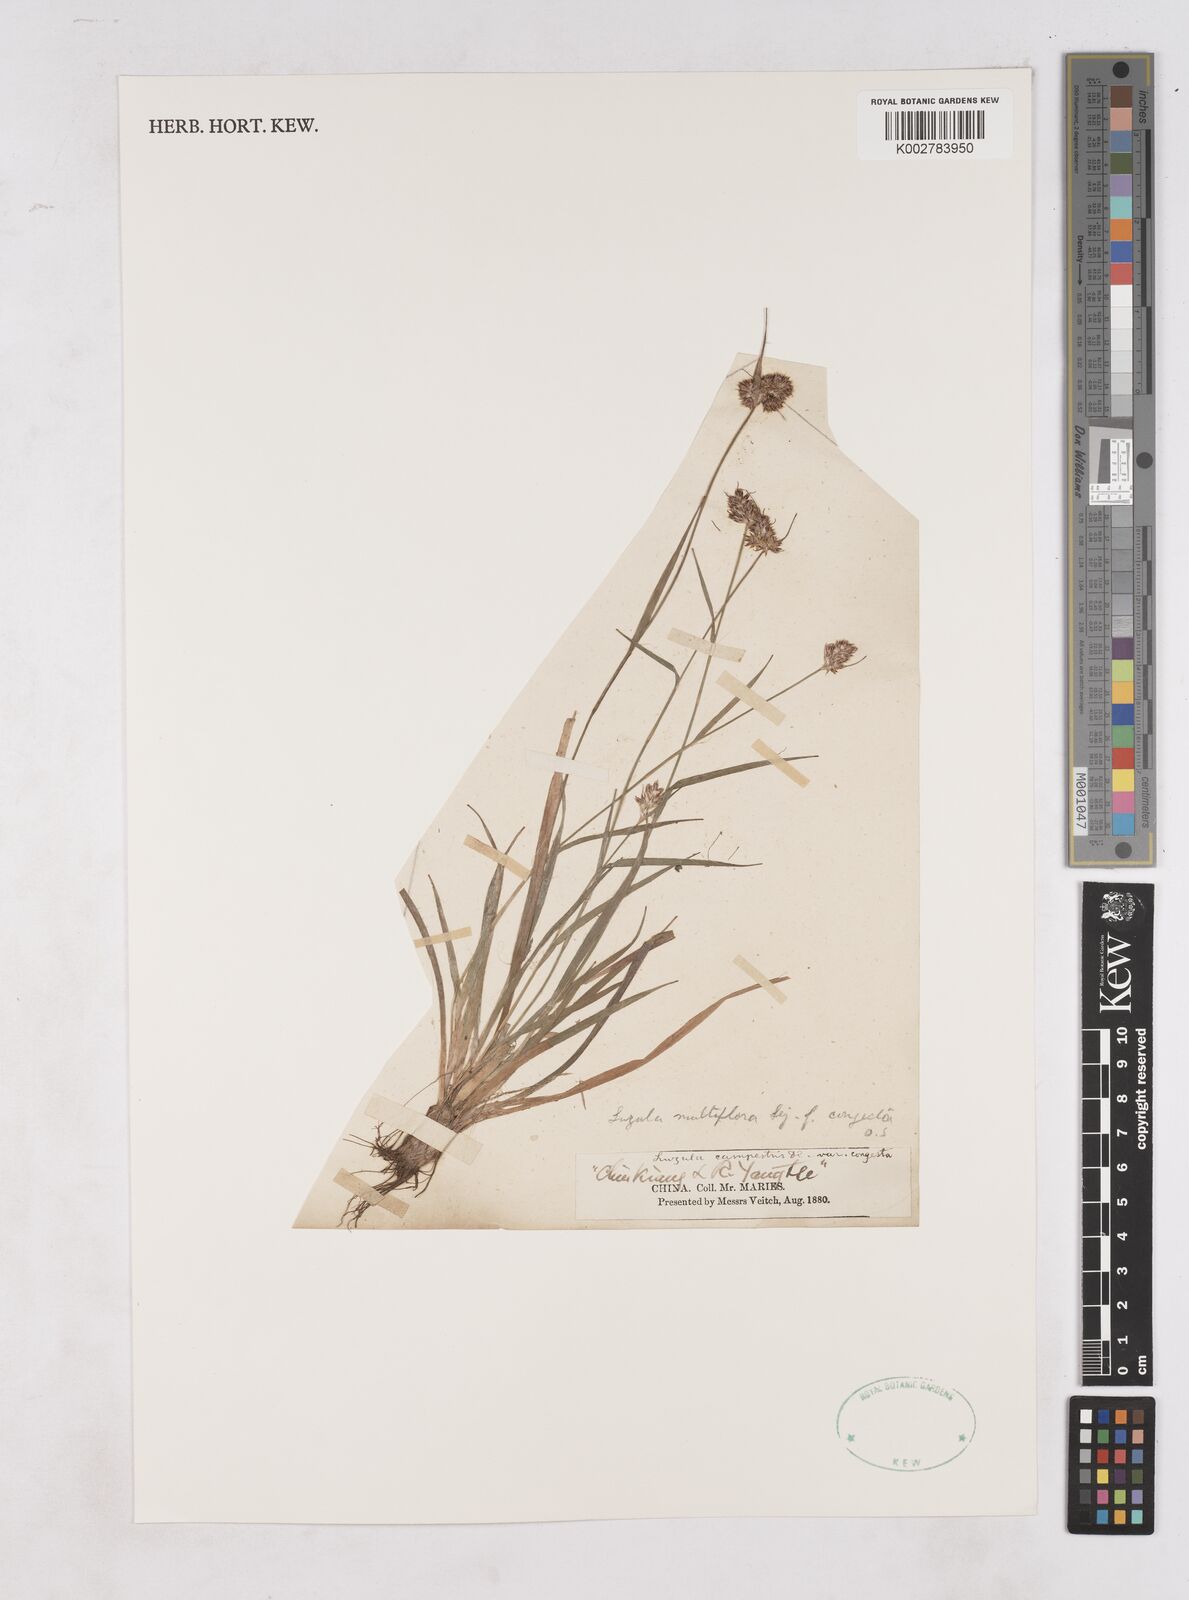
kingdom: Plantae
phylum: Tracheophyta
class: Liliopsida
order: Poales
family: Juncaceae
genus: Luzula
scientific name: Luzula campestris
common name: Field wood-rush
